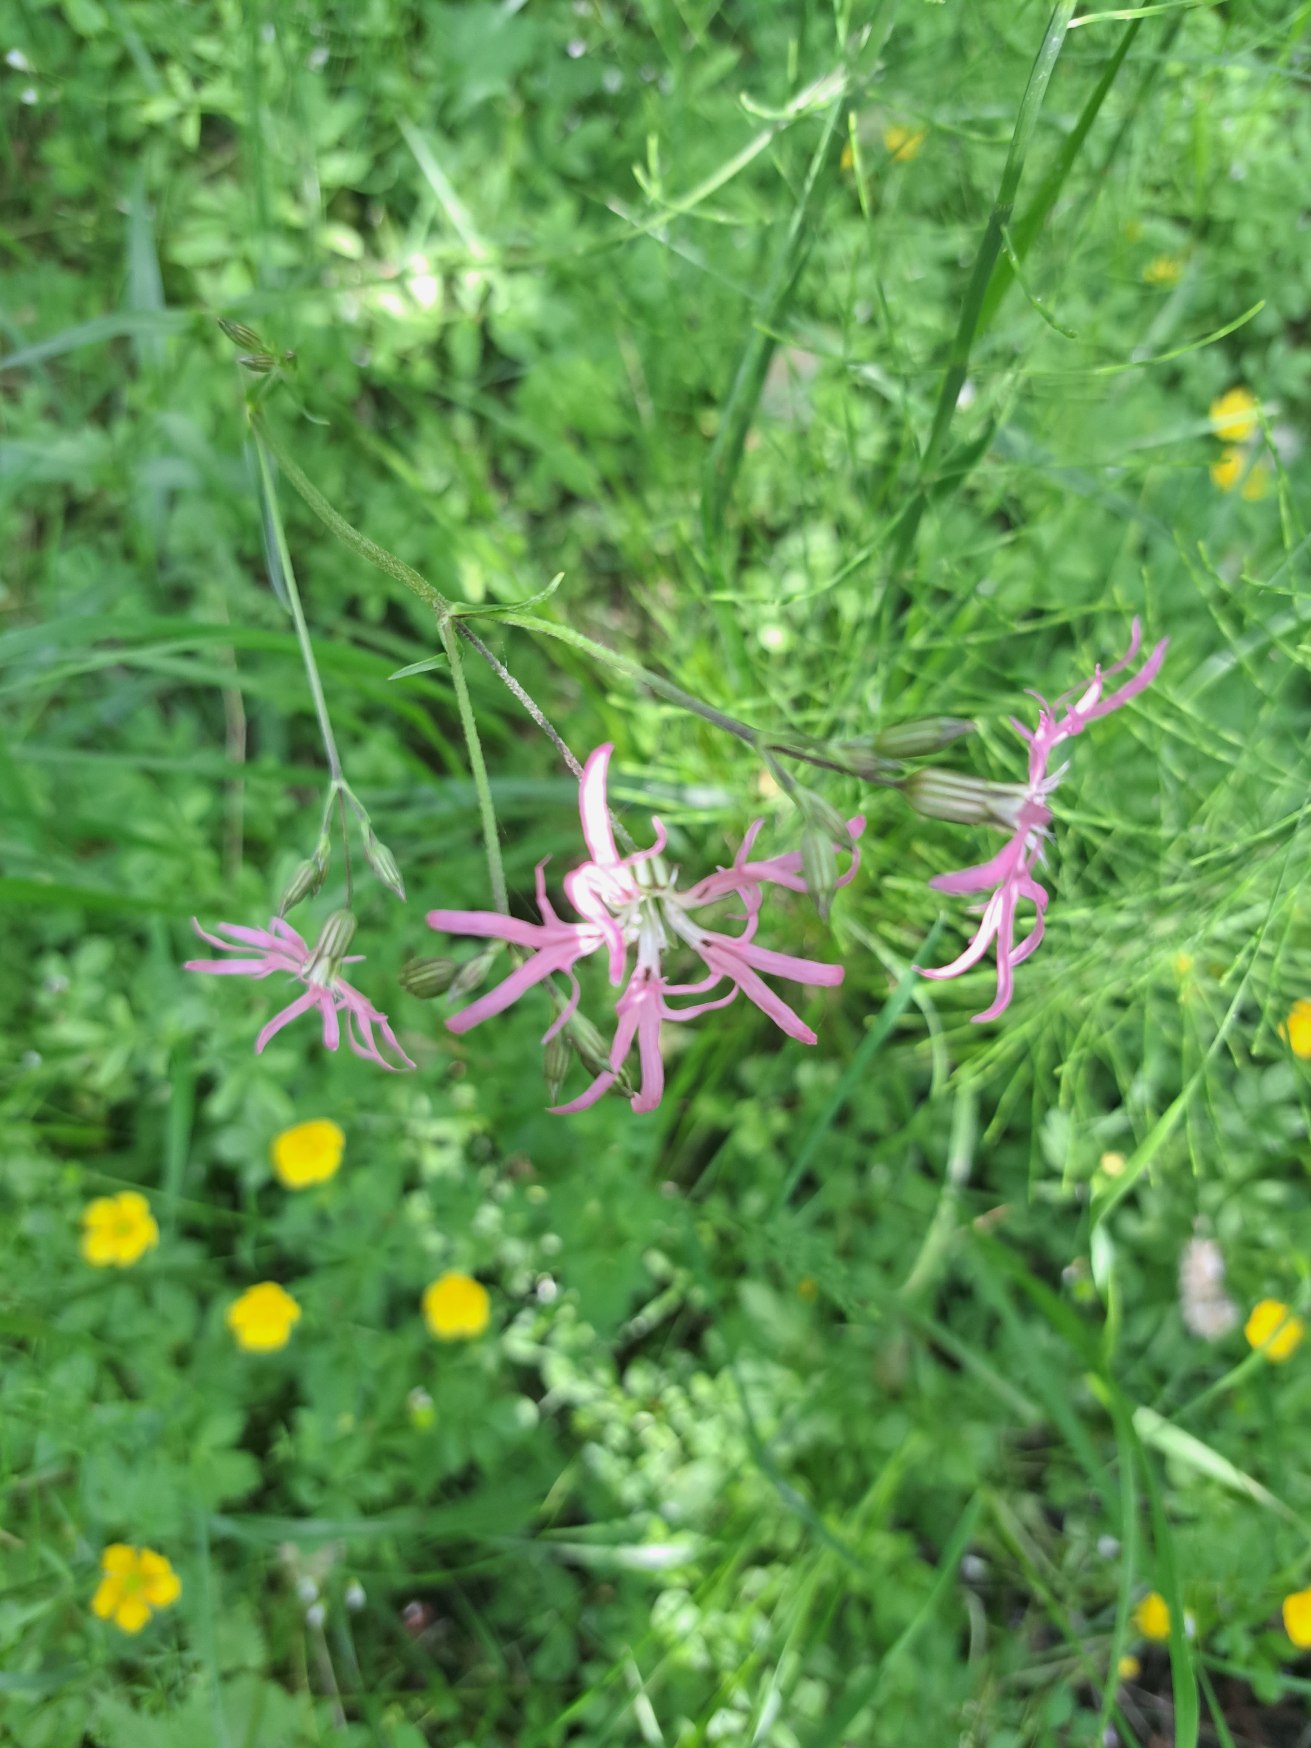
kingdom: Plantae
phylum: Tracheophyta
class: Magnoliopsida
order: Caryophyllales
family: Caryophyllaceae
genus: Silene
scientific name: Silene flos-cuculi
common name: Trævlekrone
